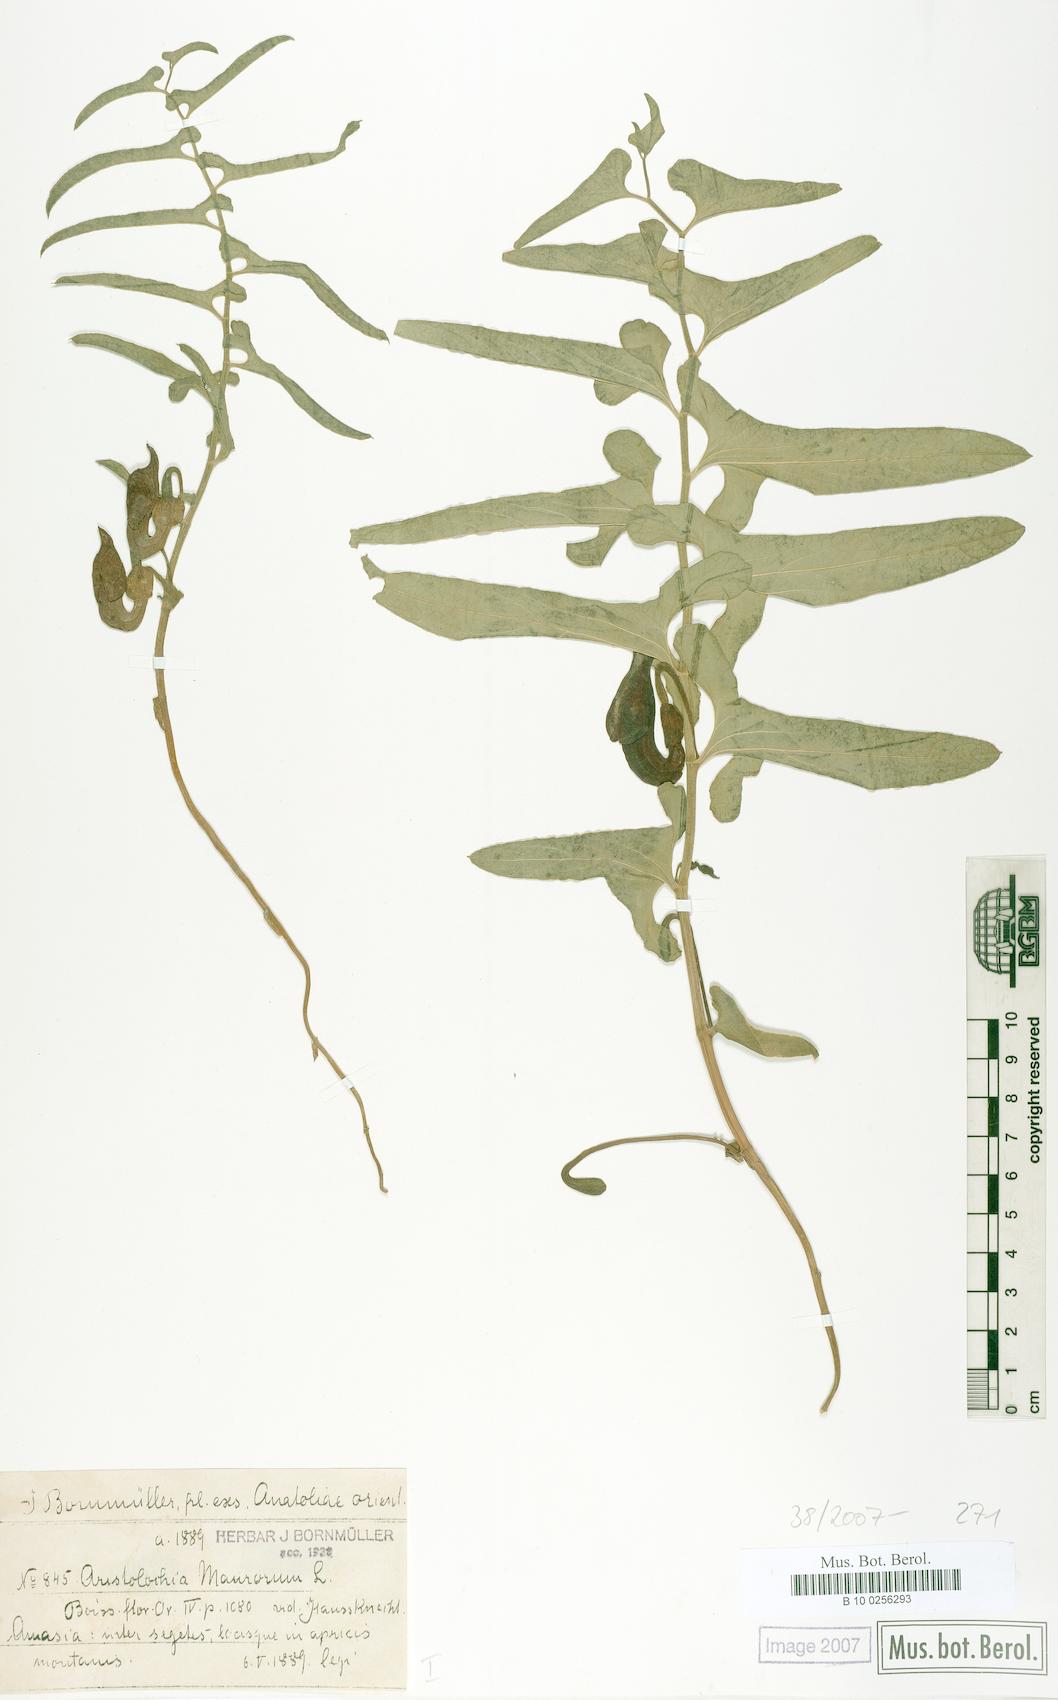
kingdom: Plantae
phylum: Tracheophyta
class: Magnoliopsida
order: Piperales
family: Aristolochiaceae
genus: Aristolochia
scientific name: Aristolochia maurorum
